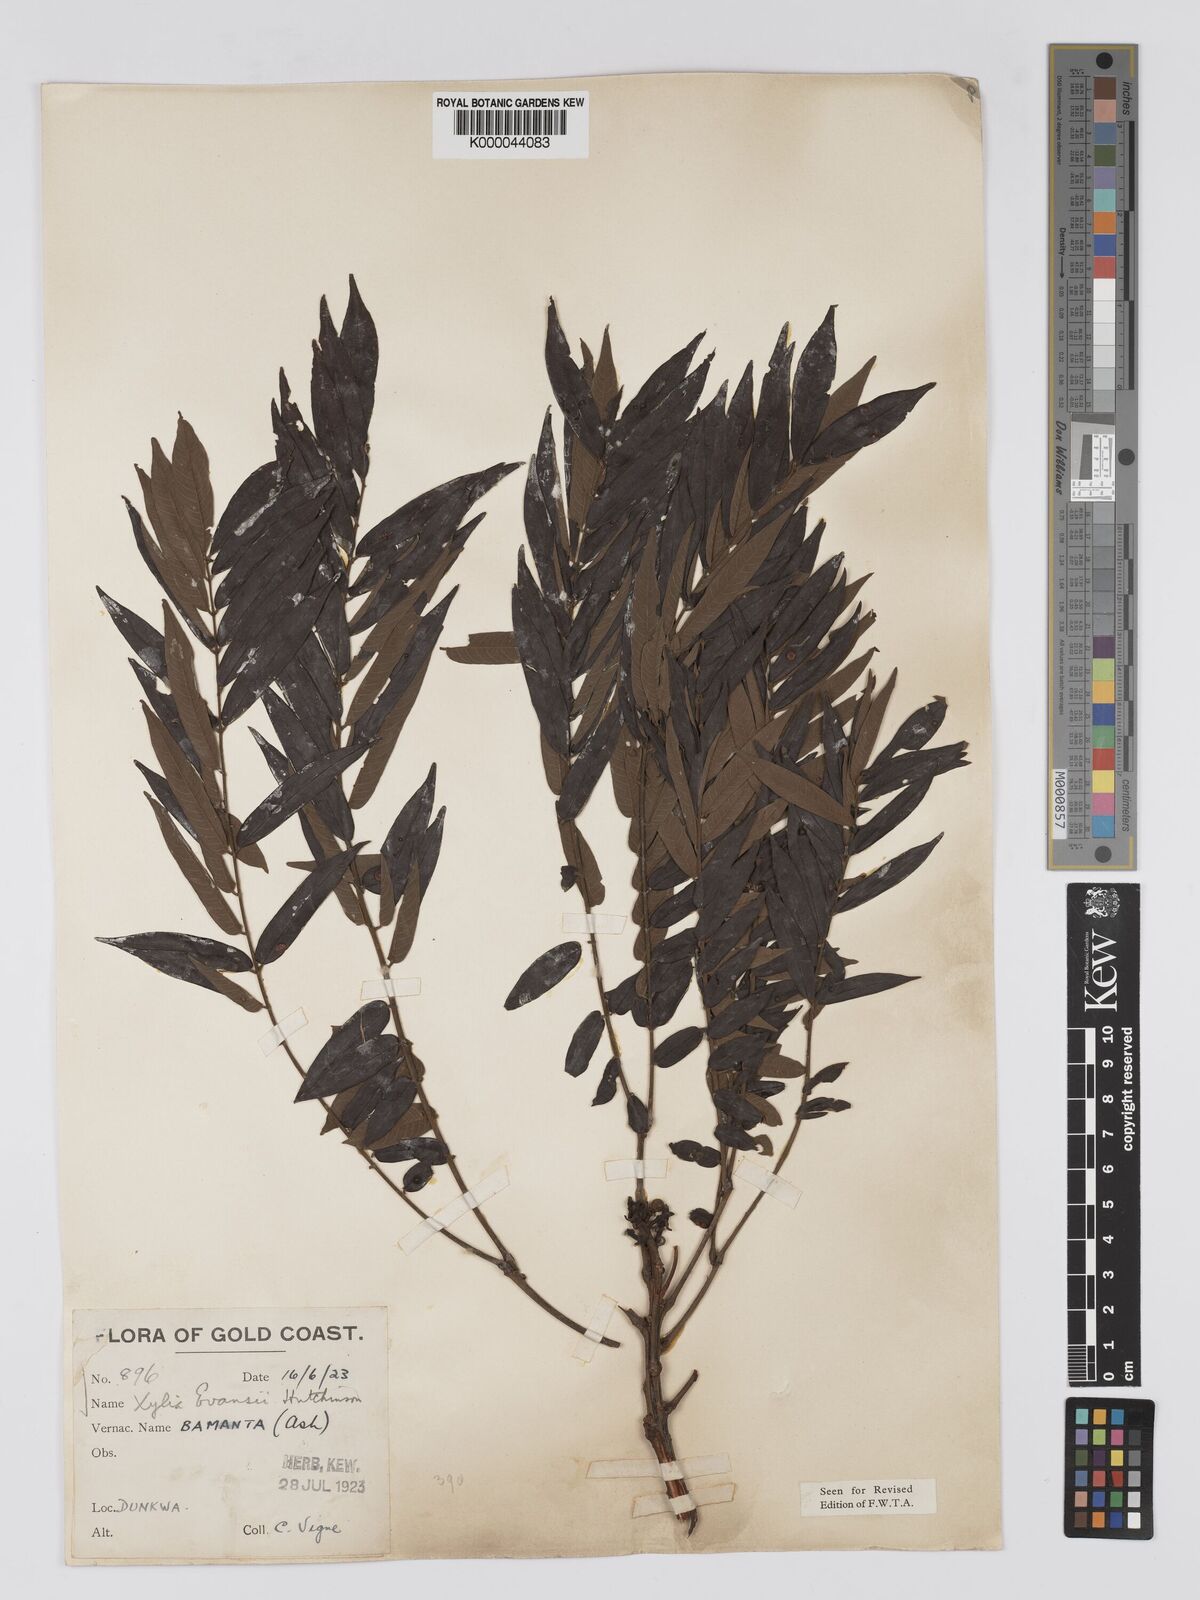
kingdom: Plantae
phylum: Tracheophyta
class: Magnoliopsida
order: Fabales
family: Fabaceae
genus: Xylia
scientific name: Xylia evansii
